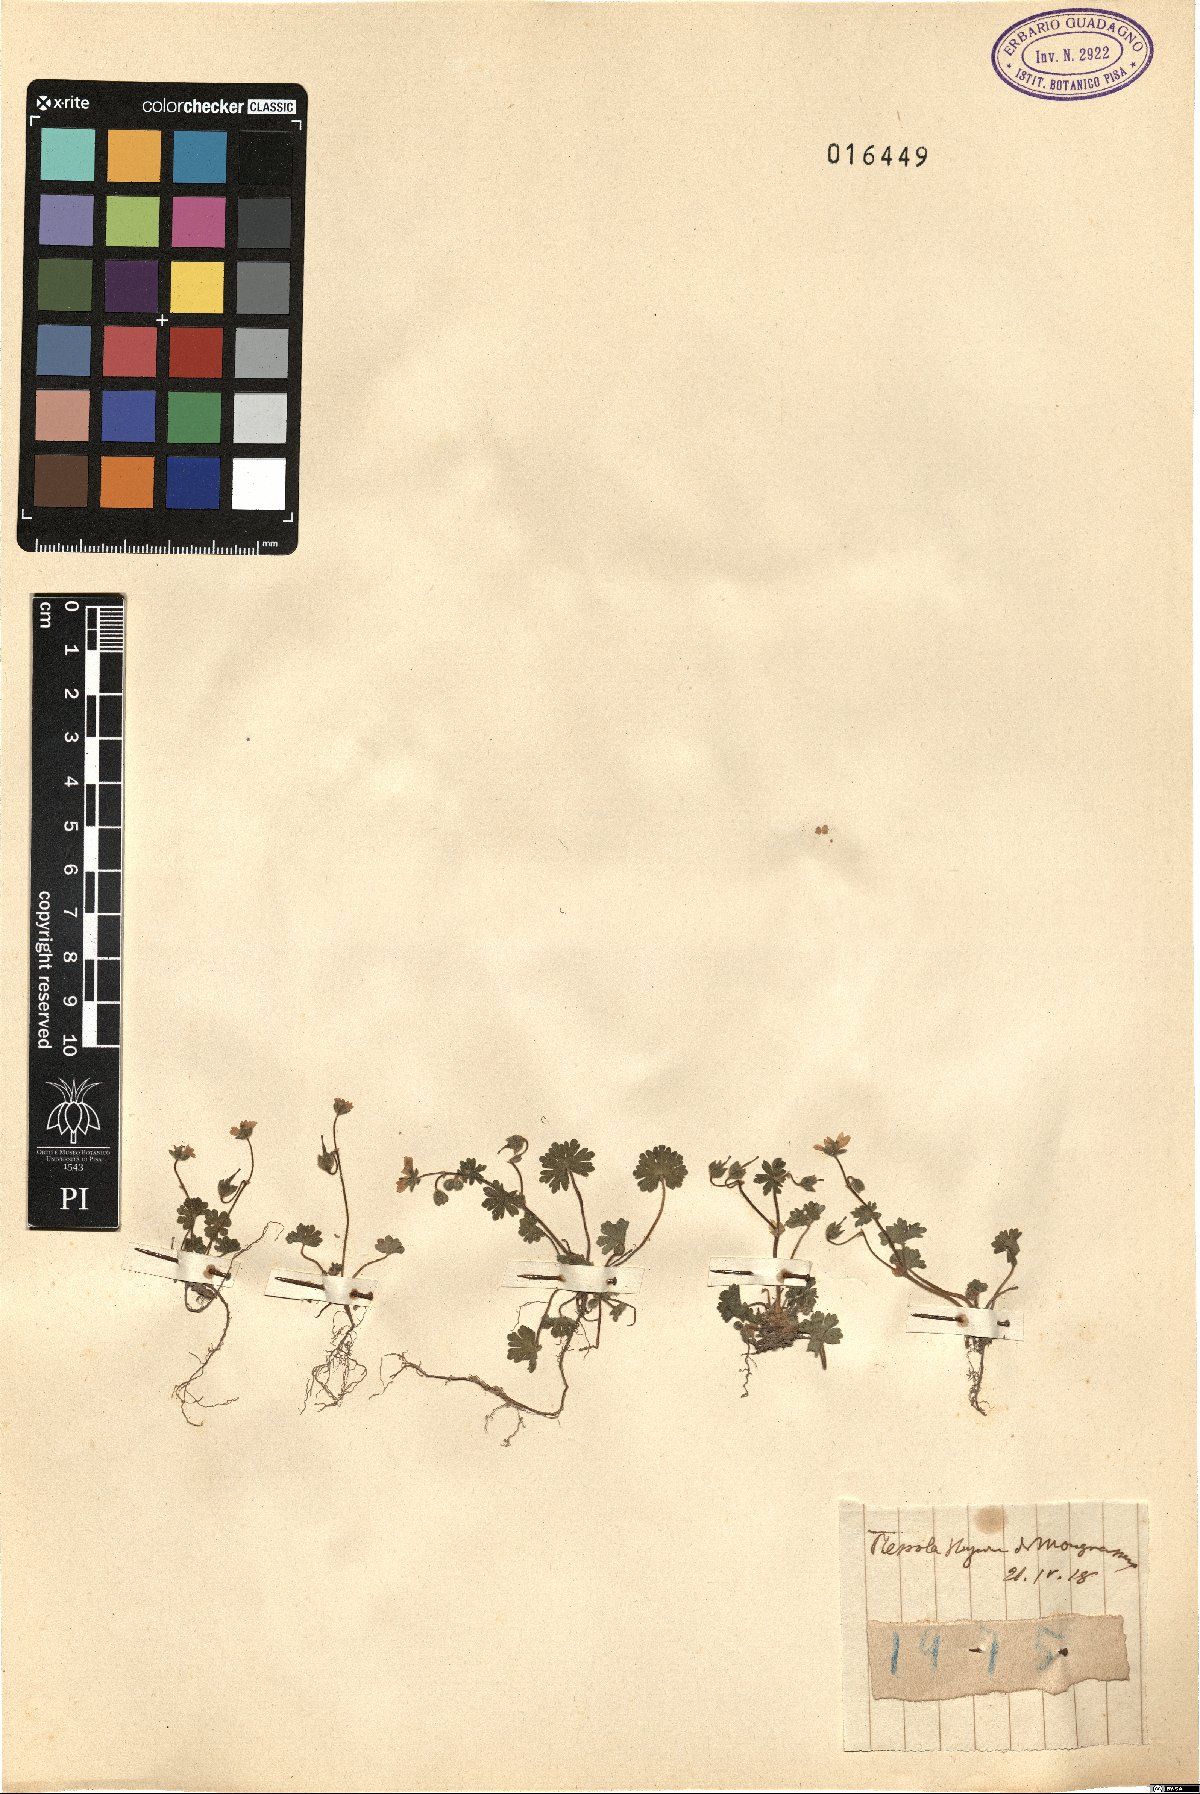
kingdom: Plantae
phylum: Tracheophyta
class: Magnoliopsida
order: Geraniales
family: Geraniaceae
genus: Geranium
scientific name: Geranium
